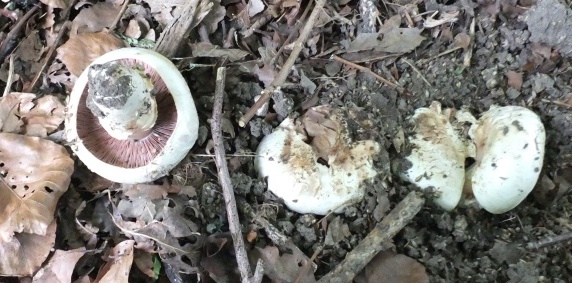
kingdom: Fungi
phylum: Basidiomycota
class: Agaricomycetes
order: Agaricales
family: Agaricaceae
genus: Agaricus
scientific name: Agaricus bitorquis
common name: vej-champignon
